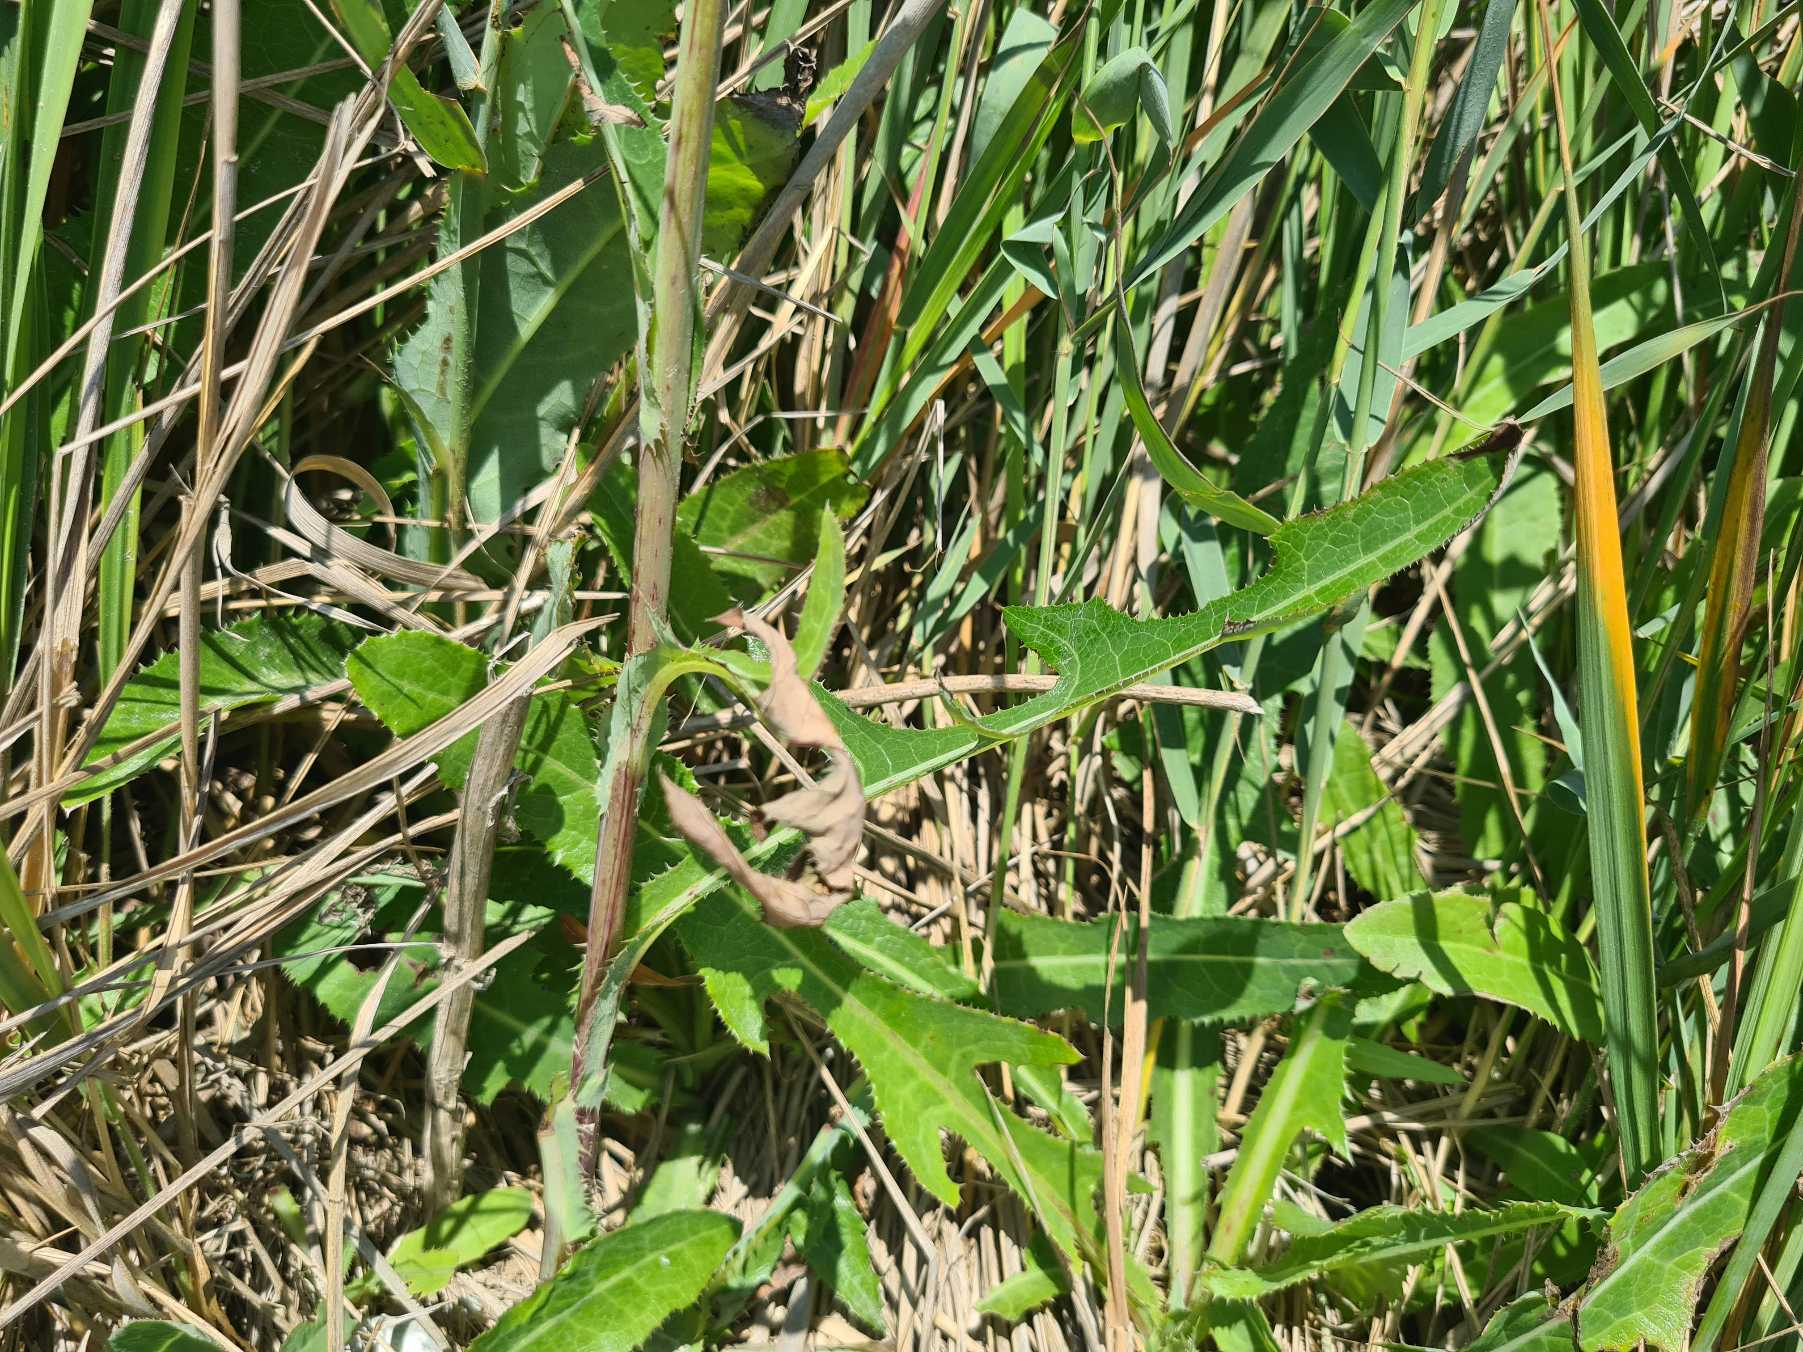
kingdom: Plantae
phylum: Tracheophyta
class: Magnoliopsida
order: Asterales
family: Asteraceae
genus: Sonchus
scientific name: Sonchus arvensis
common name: Ager-svinemælk
